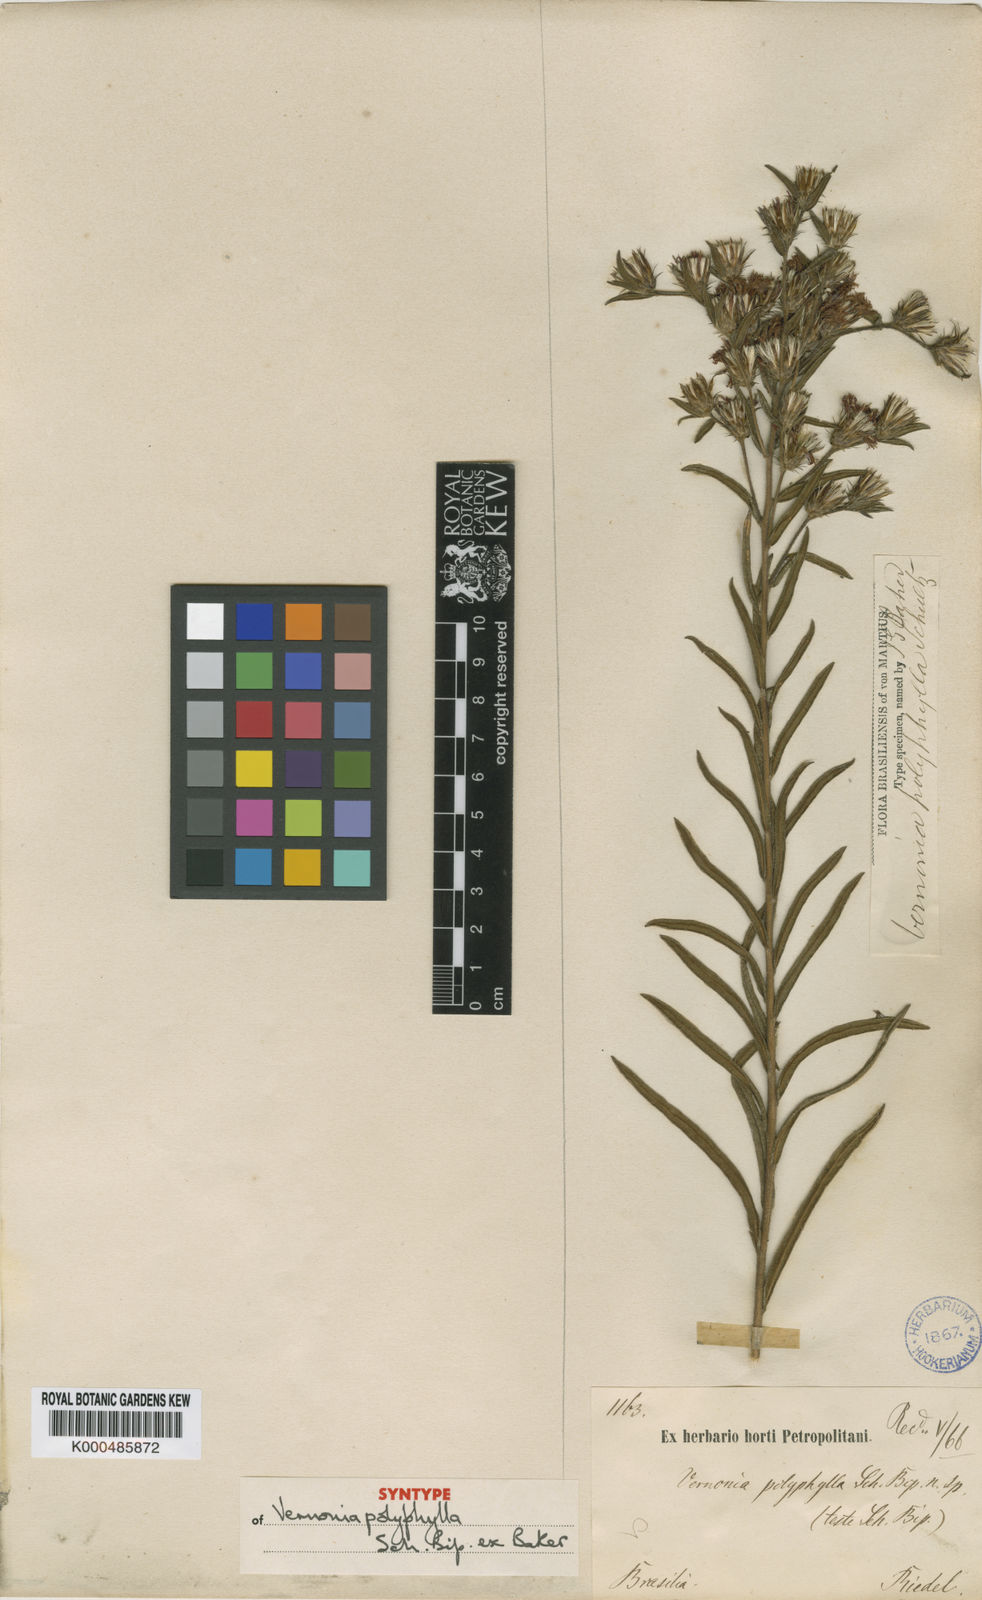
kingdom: Plantae
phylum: Tracheophyta
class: Magnoliopsida
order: Asterales
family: Asteraceae
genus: Lessingianthus
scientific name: Lessingianthus polyphyllus
